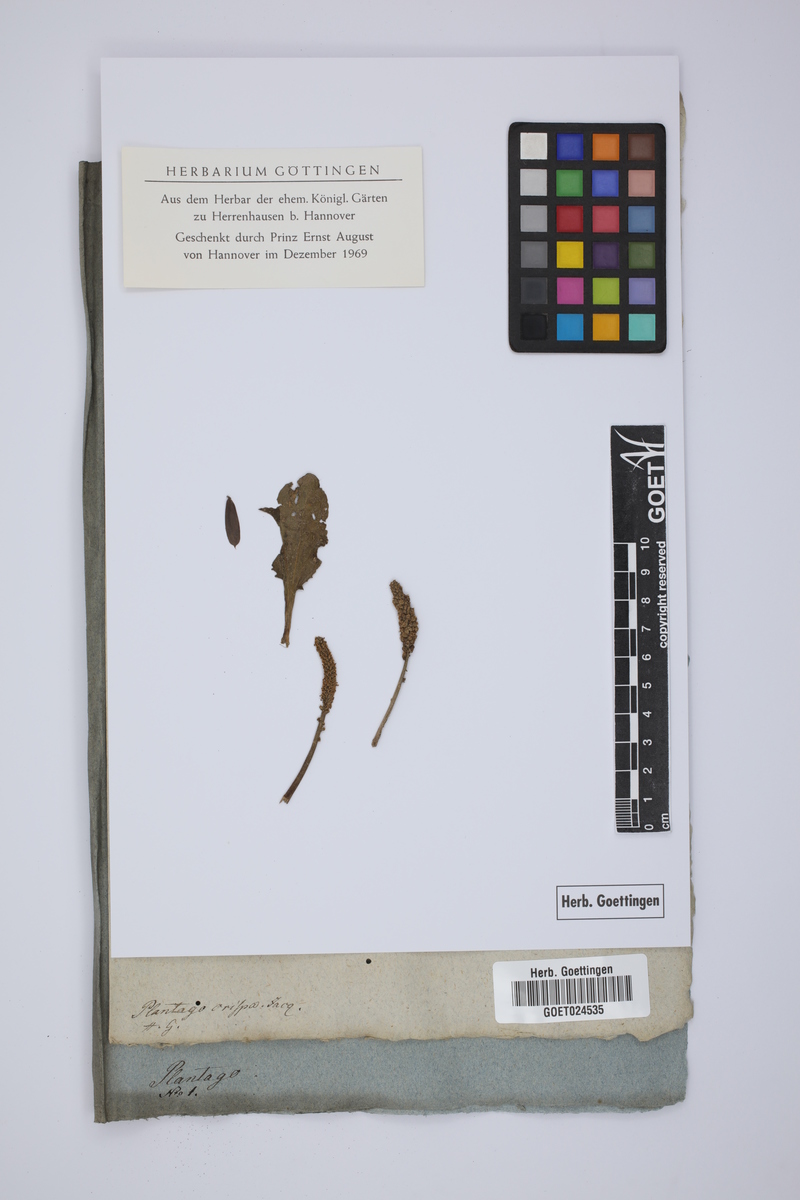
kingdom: Plantae
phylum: Tracheophyta
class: Magnoliopsida
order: Lamiales
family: Plantaginaceae
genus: Plantago
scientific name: Plantago sempervirens
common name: Shrubby plantain
